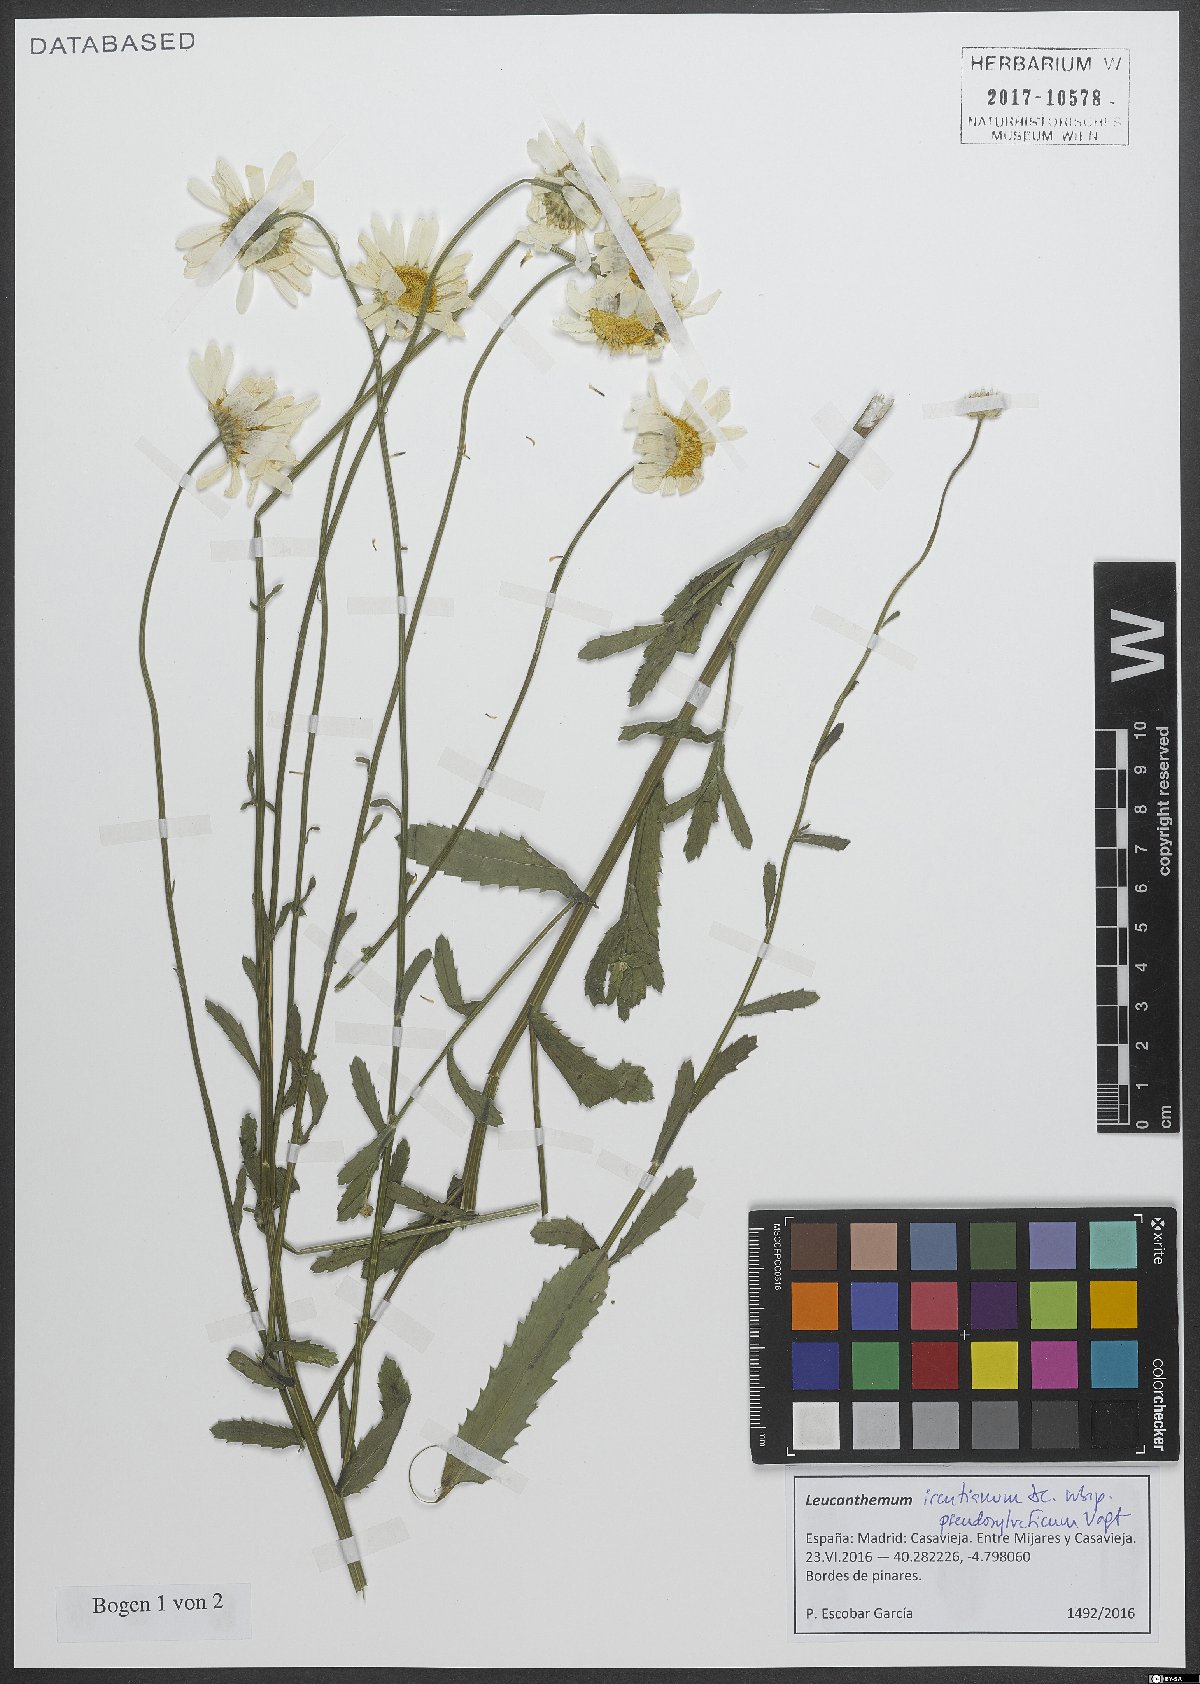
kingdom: Plantae
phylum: Tracheophyta
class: Magnoliopsida
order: Asterales
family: Asteraceae
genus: Leucanthemum
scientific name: Leucanthemum pseudosylvaticum
